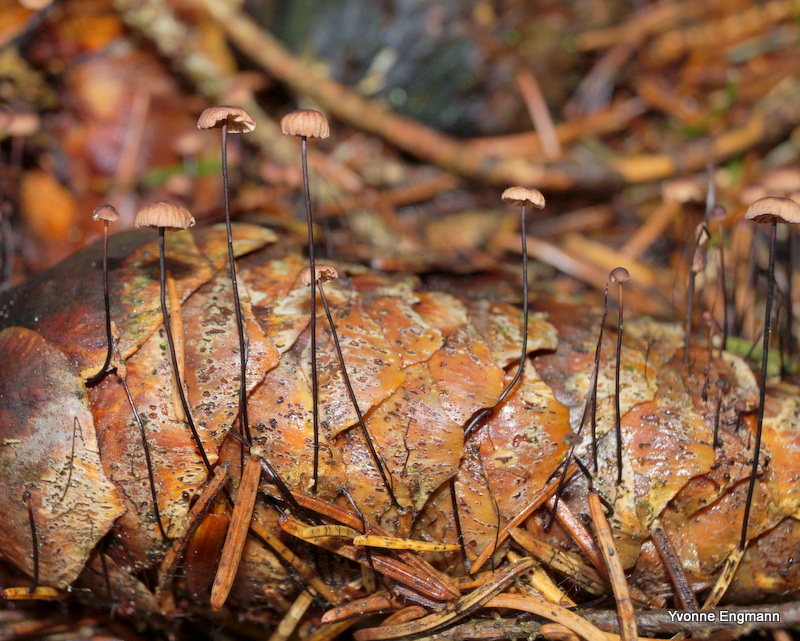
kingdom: Fungi
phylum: Basidiomycota
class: Agaricomycetes
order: Agaricales
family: Omphalotaceae
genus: Gymnopus
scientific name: Gymnopus androsaceus
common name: trådstokket fladhat
